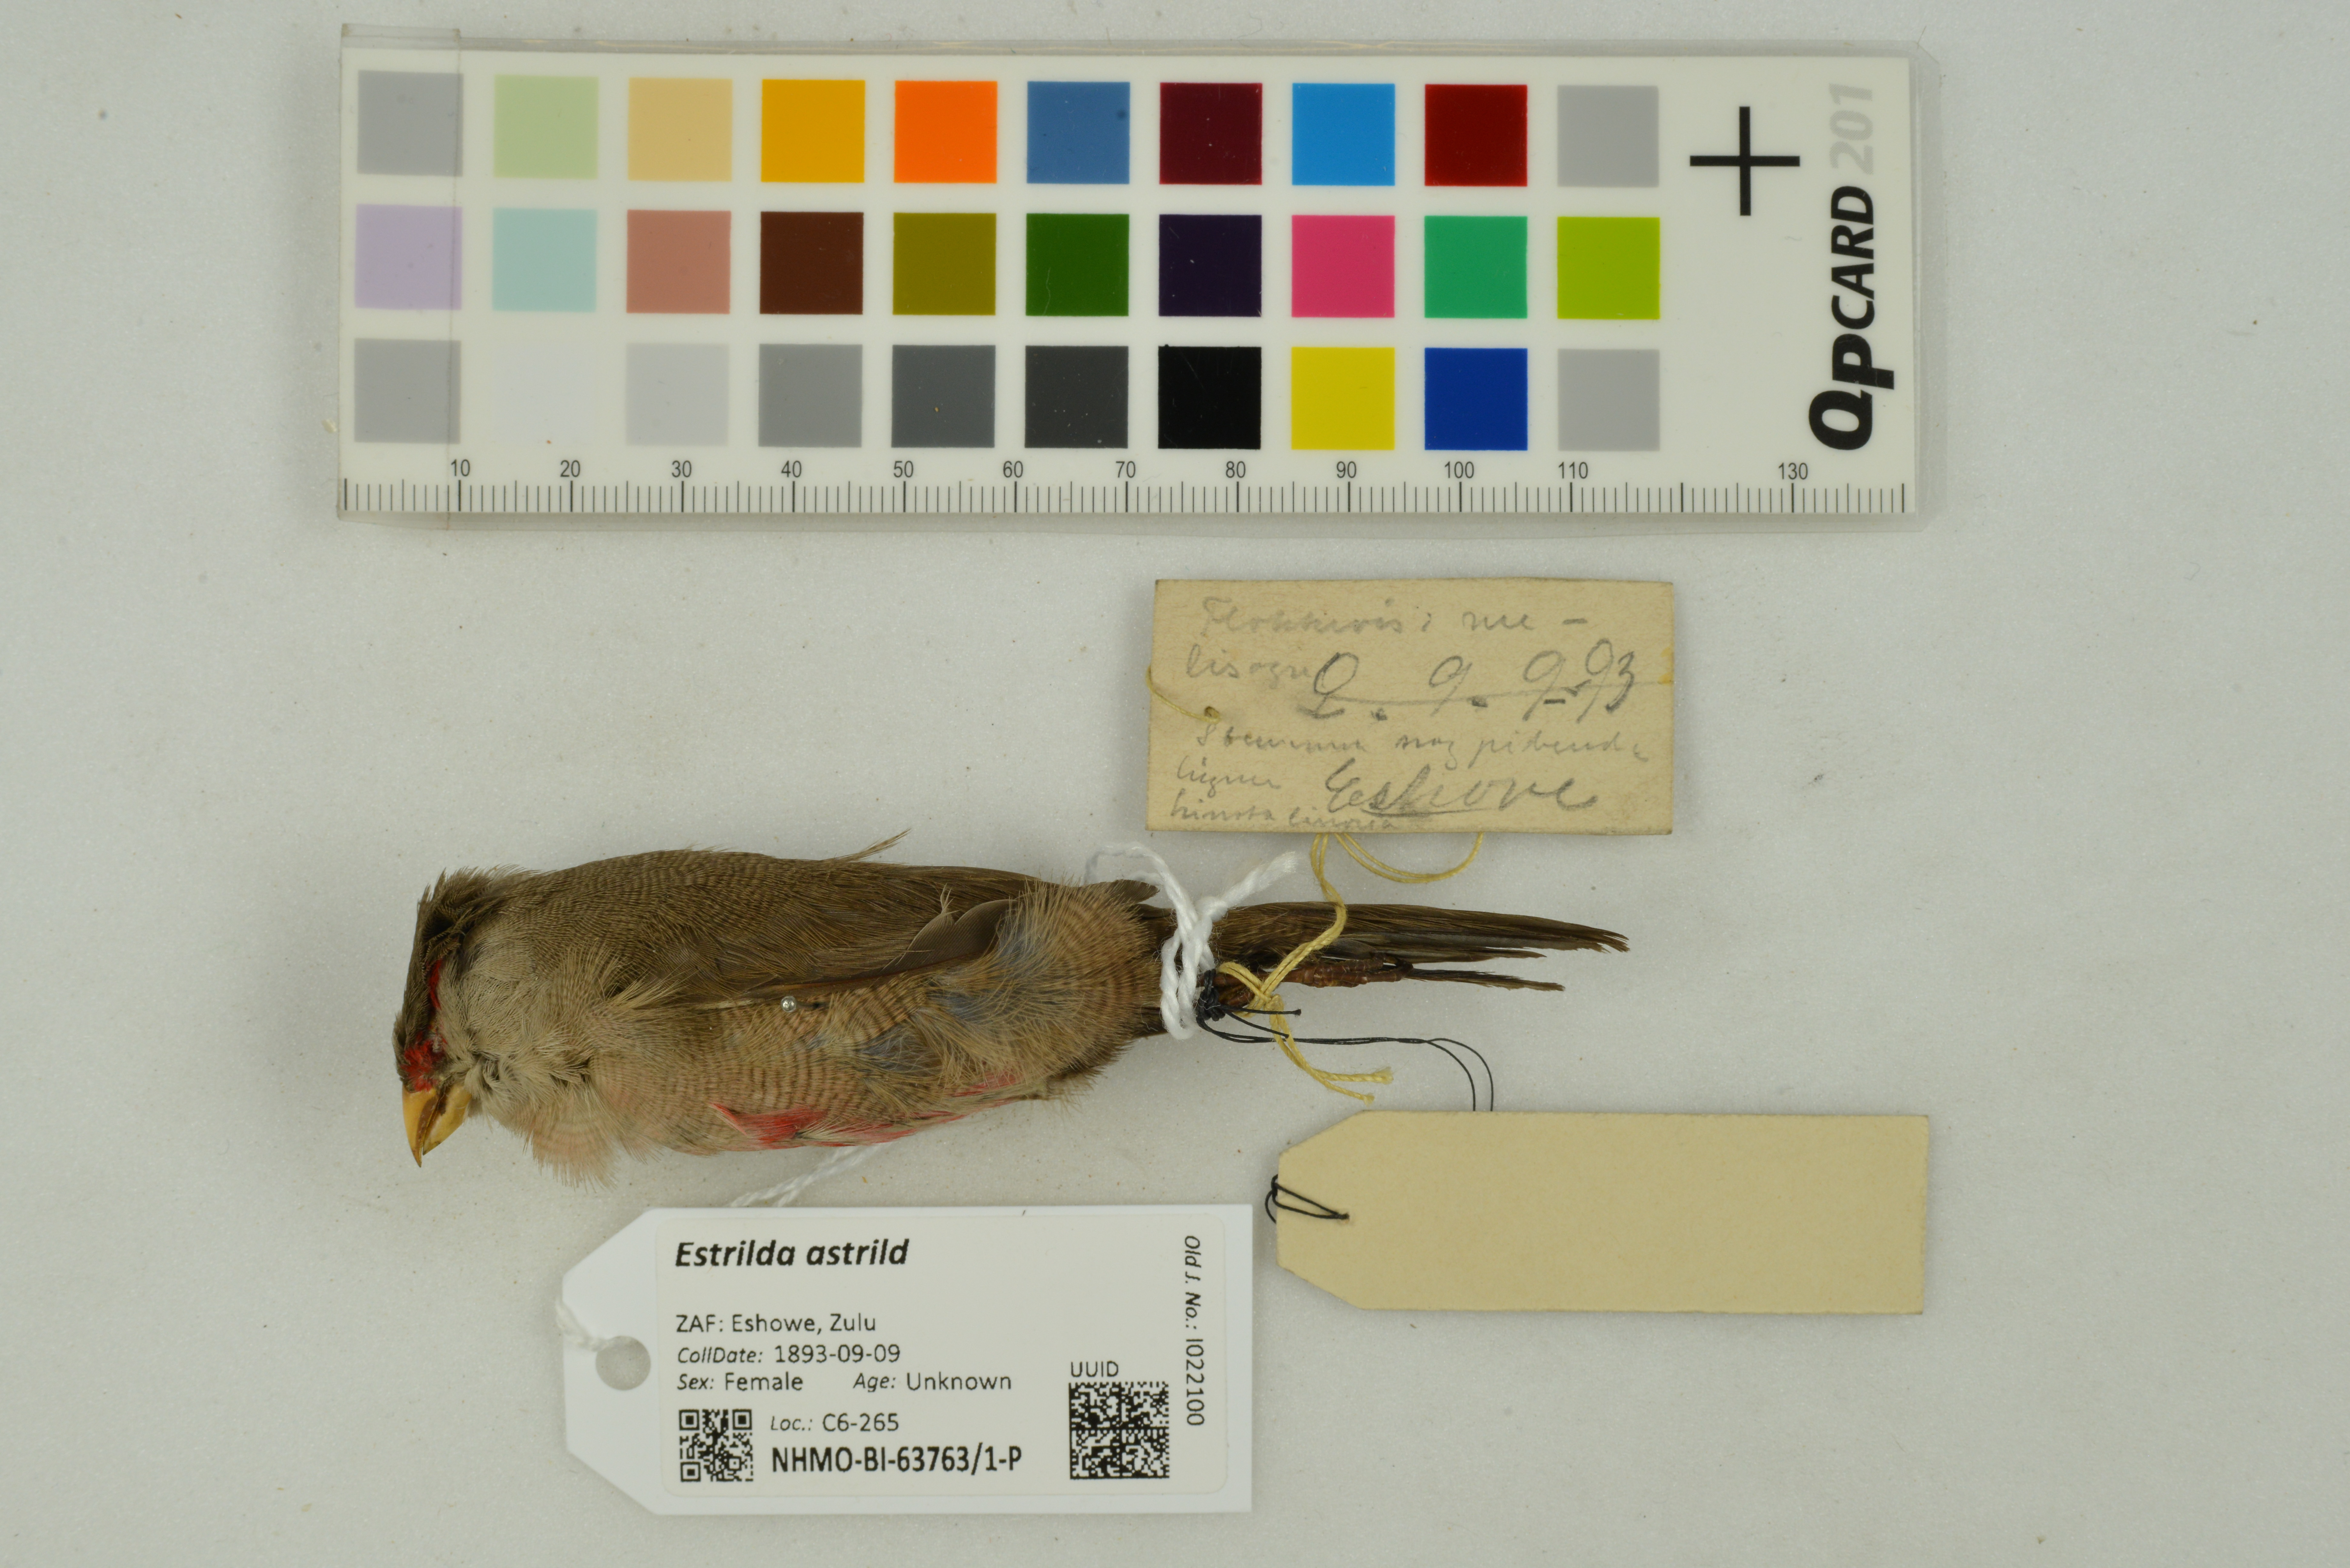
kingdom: Animalia
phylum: Chordata
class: Aves
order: Passeriformes
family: Estrildidae
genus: Estrilda
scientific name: Estrilda astrild
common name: Common waxbill
